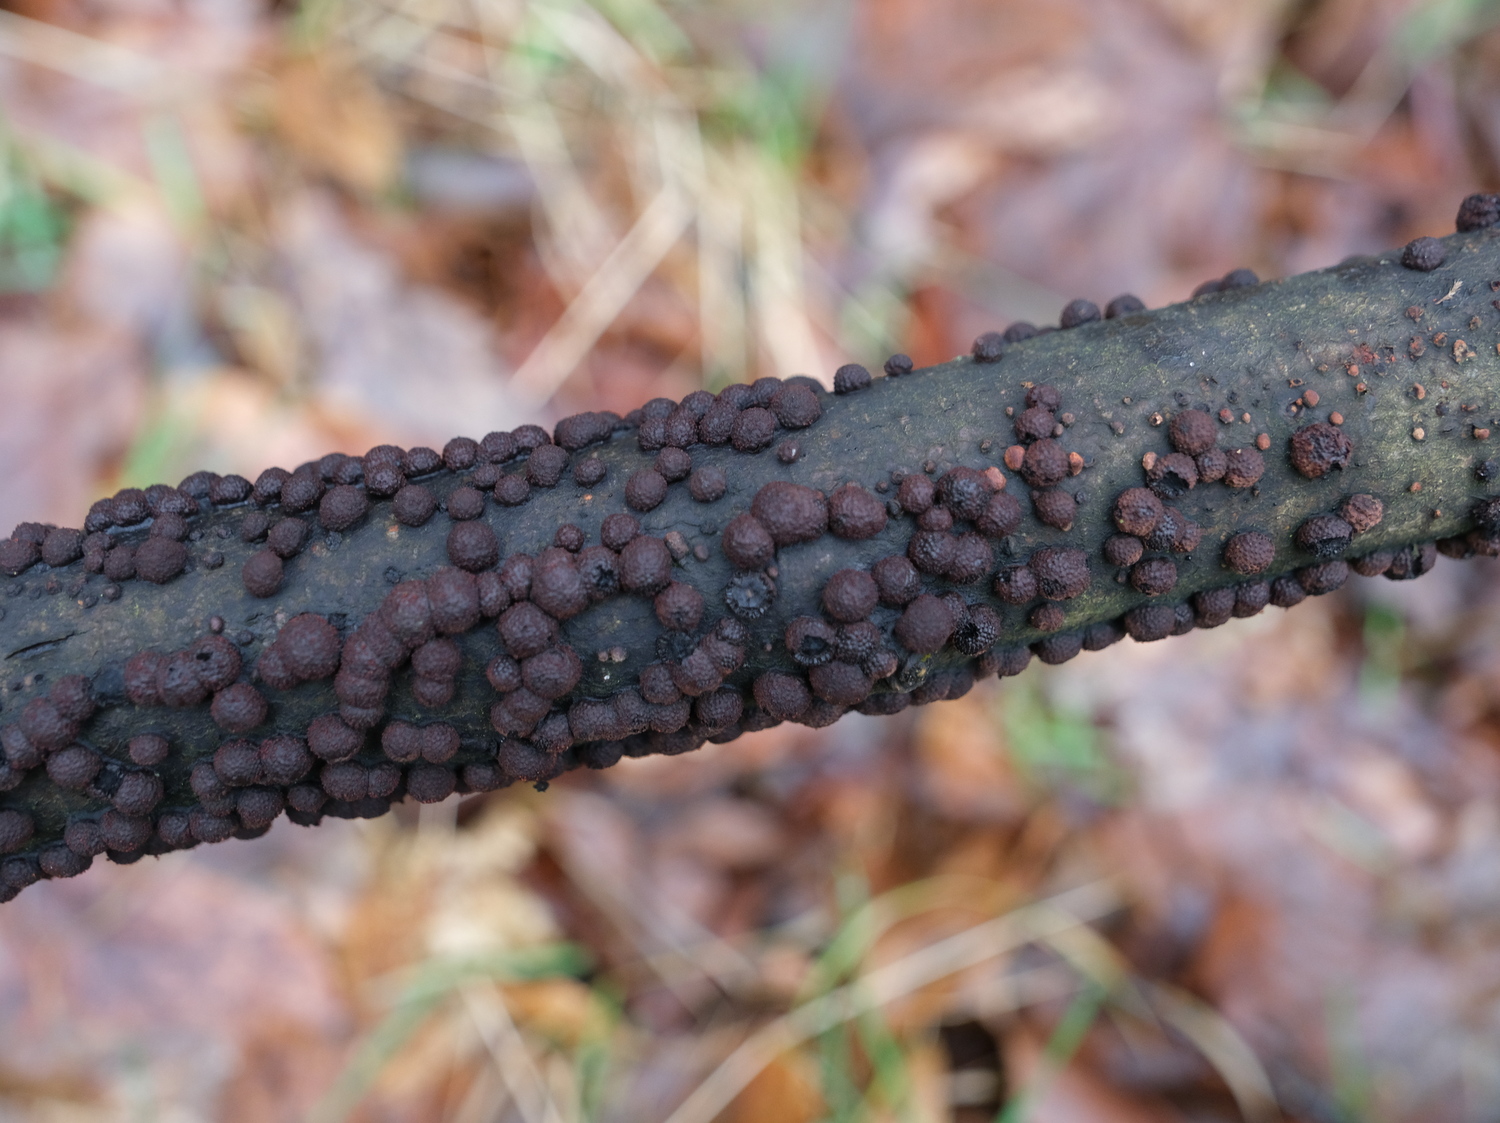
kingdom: Fungi
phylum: Ascomycota
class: Sordariomycetes
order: Xylariales
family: Hypoxylaceae
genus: Hypoxylon
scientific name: Hypoxylon fragiforme
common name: kuljordbær
